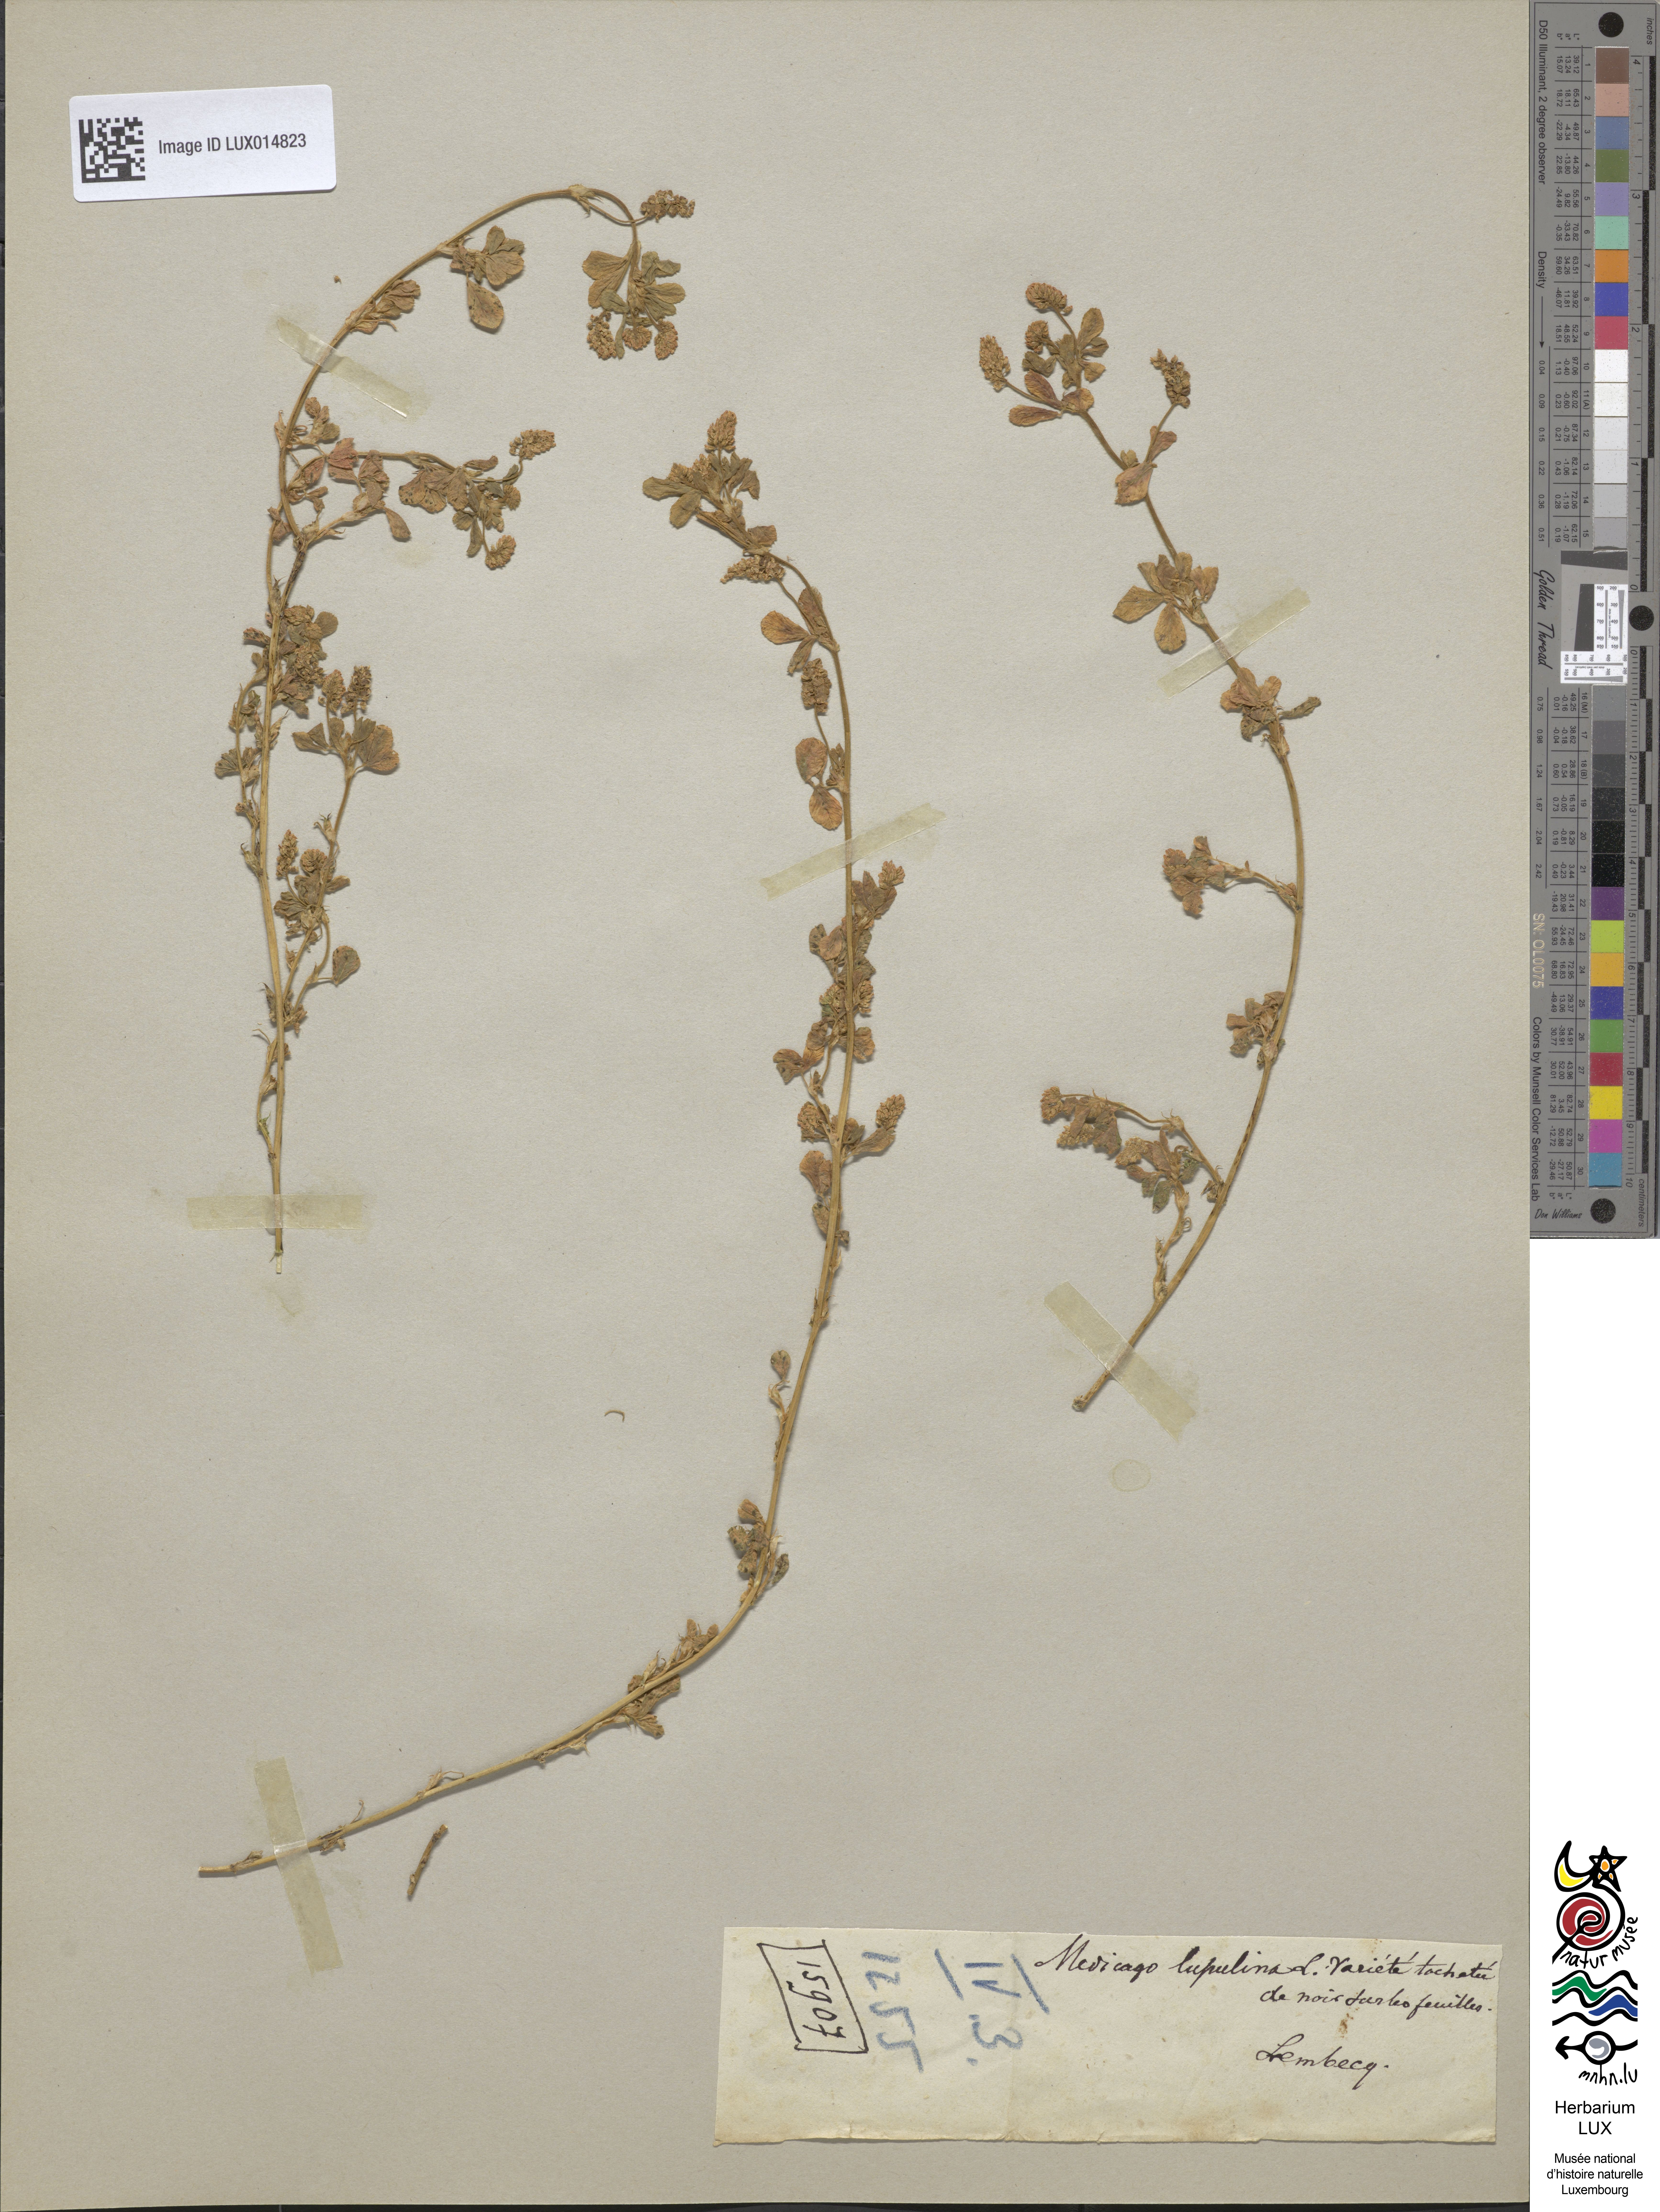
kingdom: Plantae
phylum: Tracheophyta
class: Magnoliopsida
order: Fabales
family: Fabaceae
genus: Medicago
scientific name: Medicago lupulina
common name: Black medick
